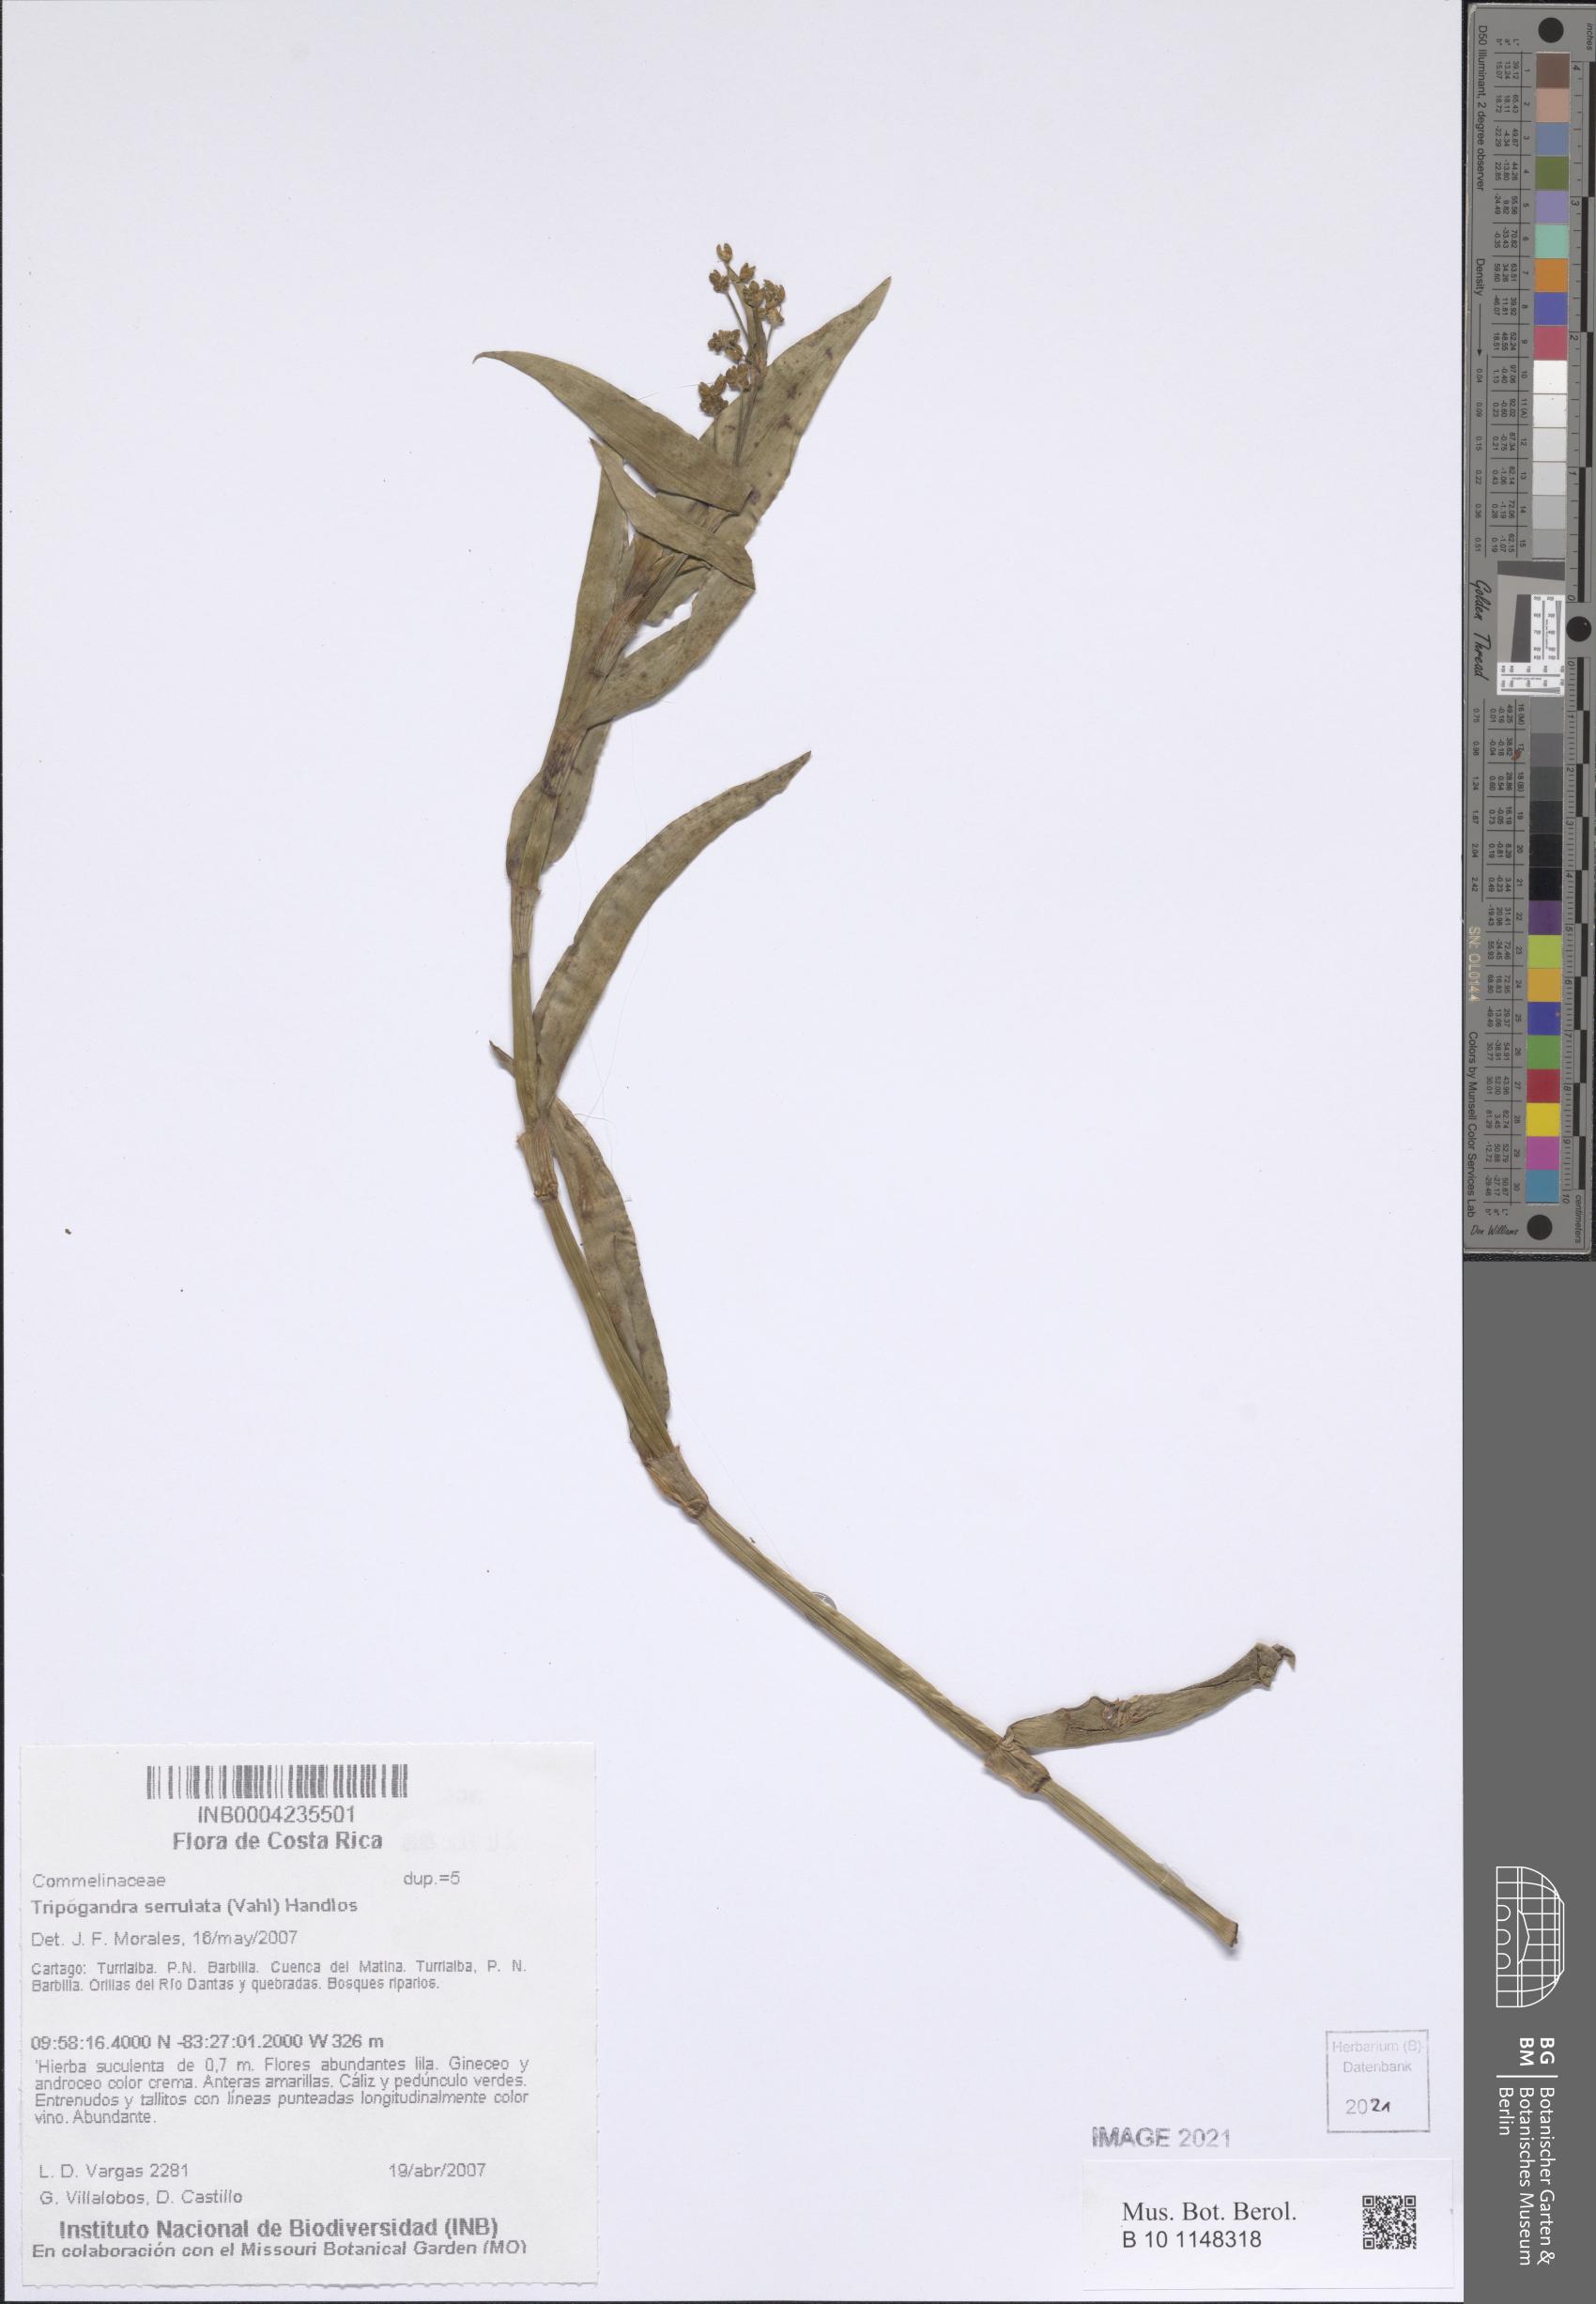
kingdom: Plantae
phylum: Tracheophyta
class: Liliopsida
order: Commelinales
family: Commelinaceae
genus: Callisia
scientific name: Callisia serrulata
